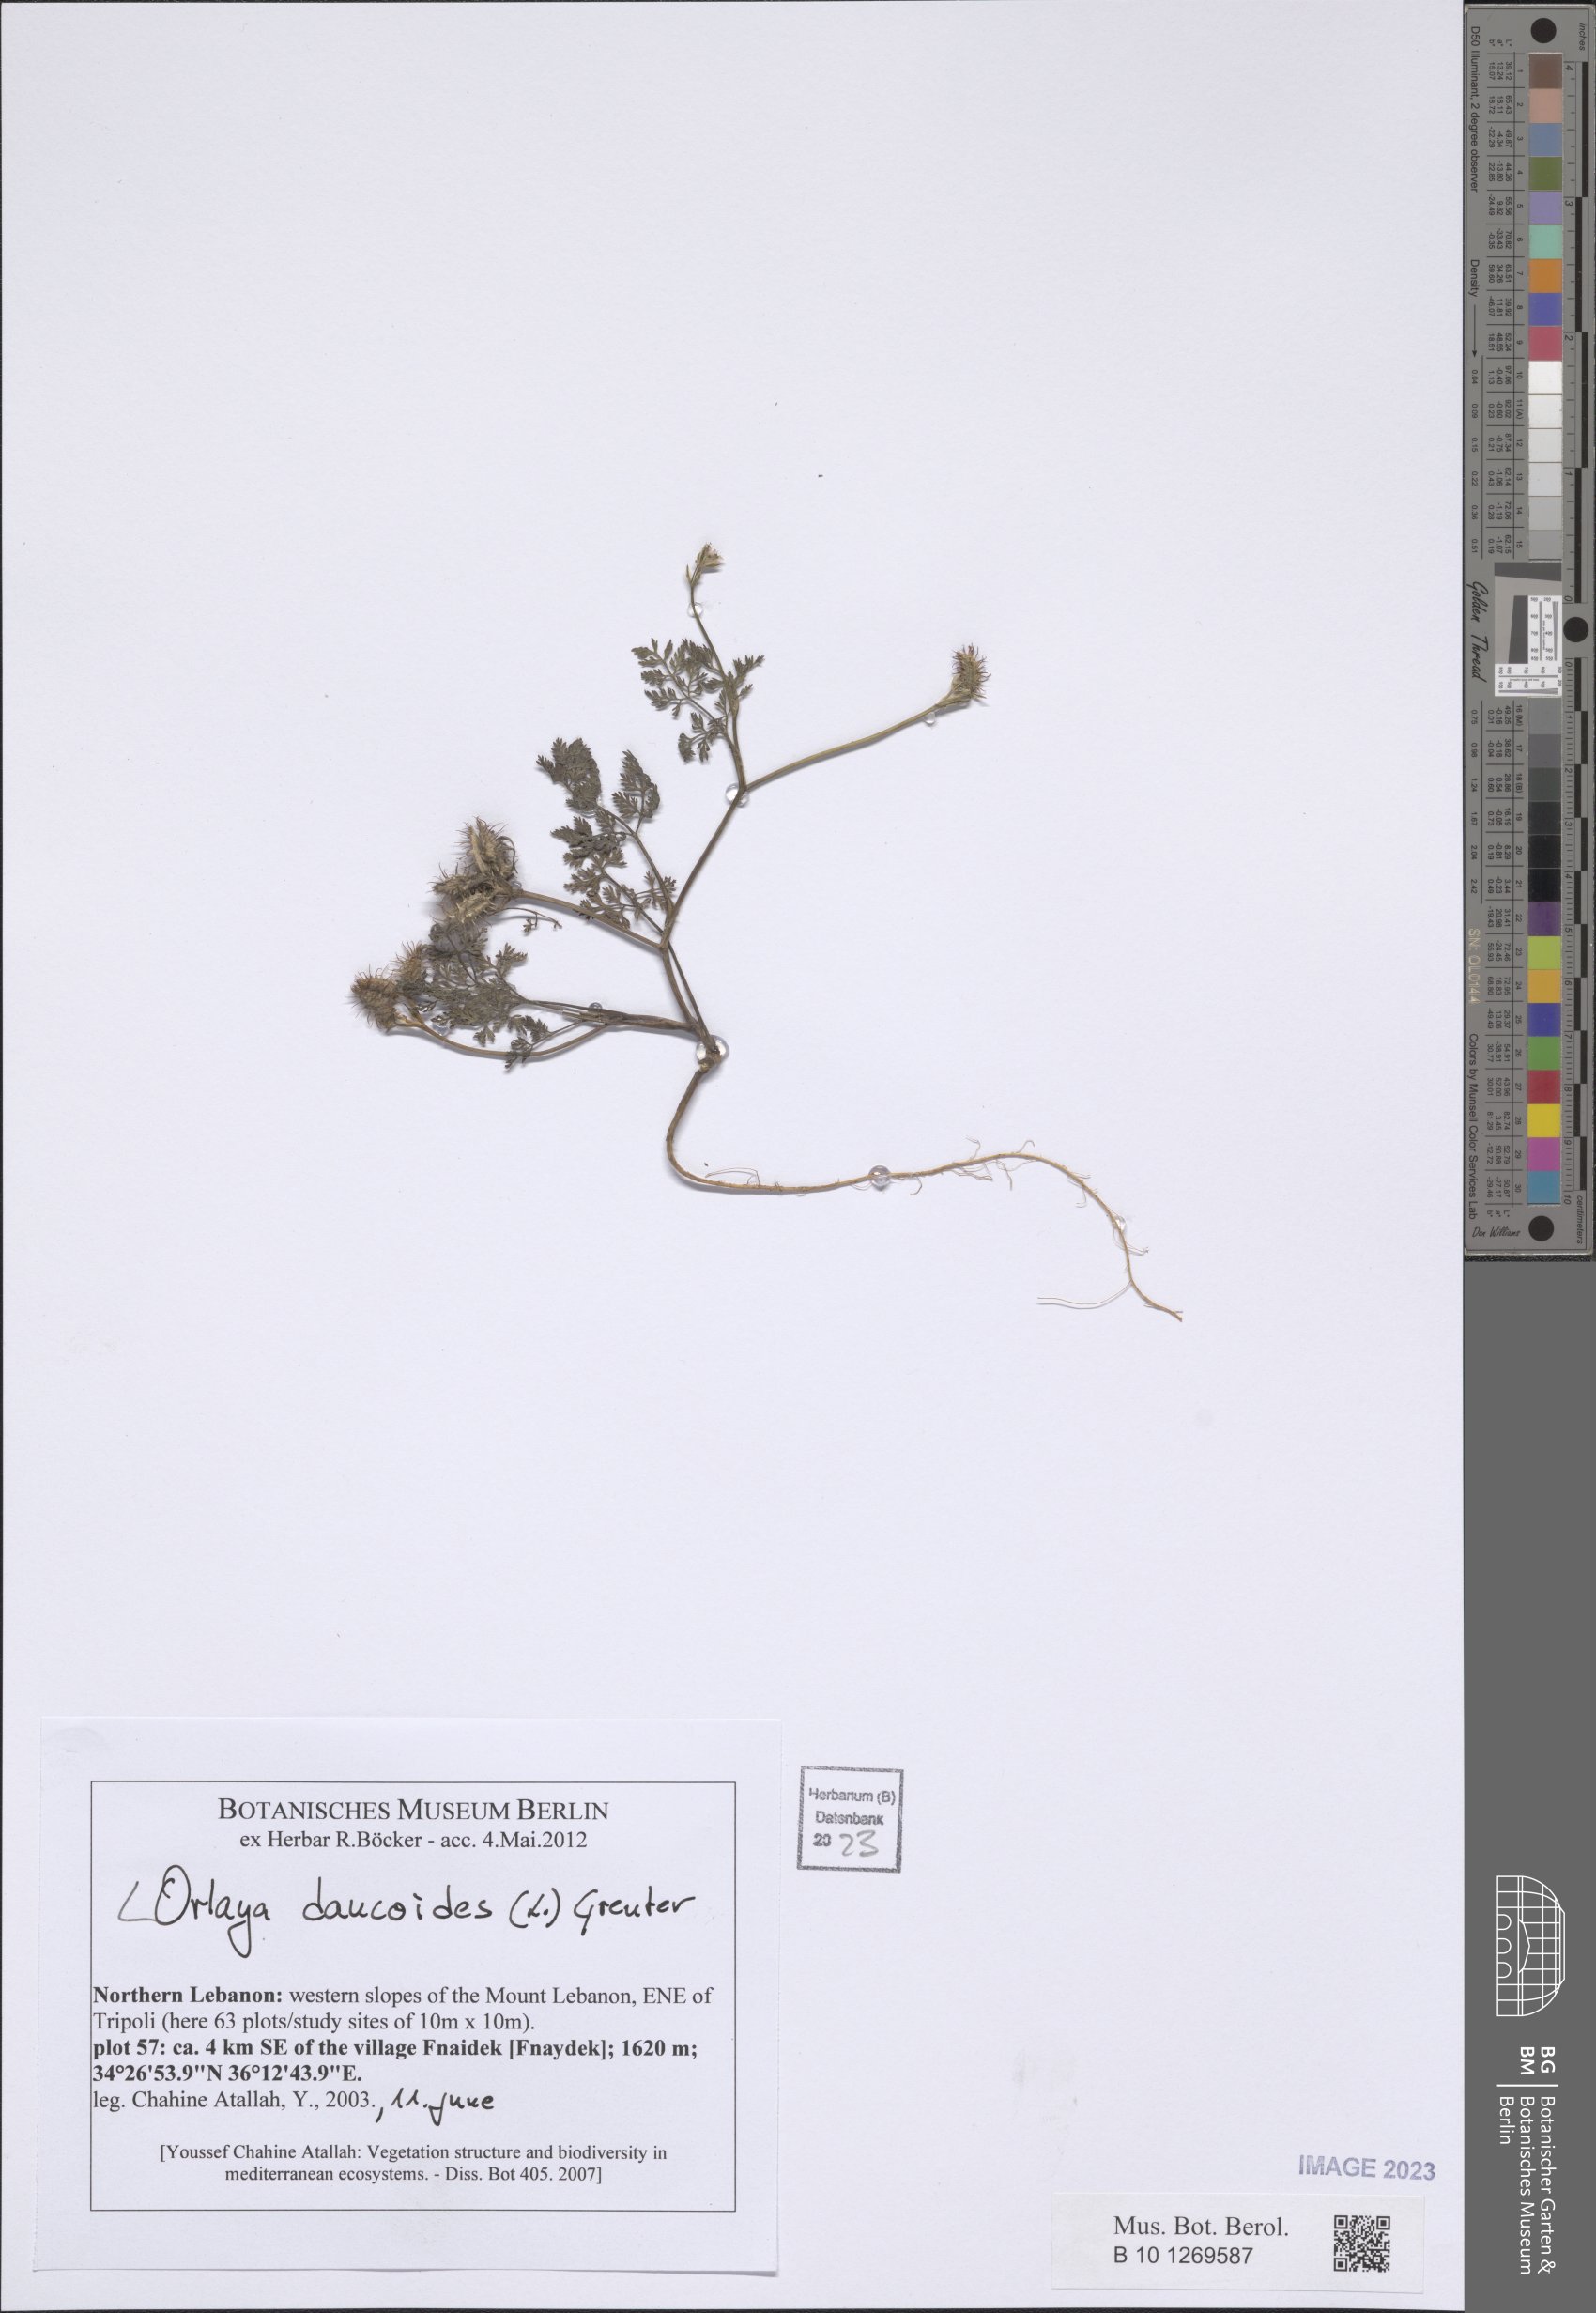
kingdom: Plantae
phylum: Tracheophyta
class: Magnoliopsida
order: Apiales
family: Apiaceae
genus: Orlaya
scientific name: Orlaya daucoides
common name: Flat-fruit orlaya
